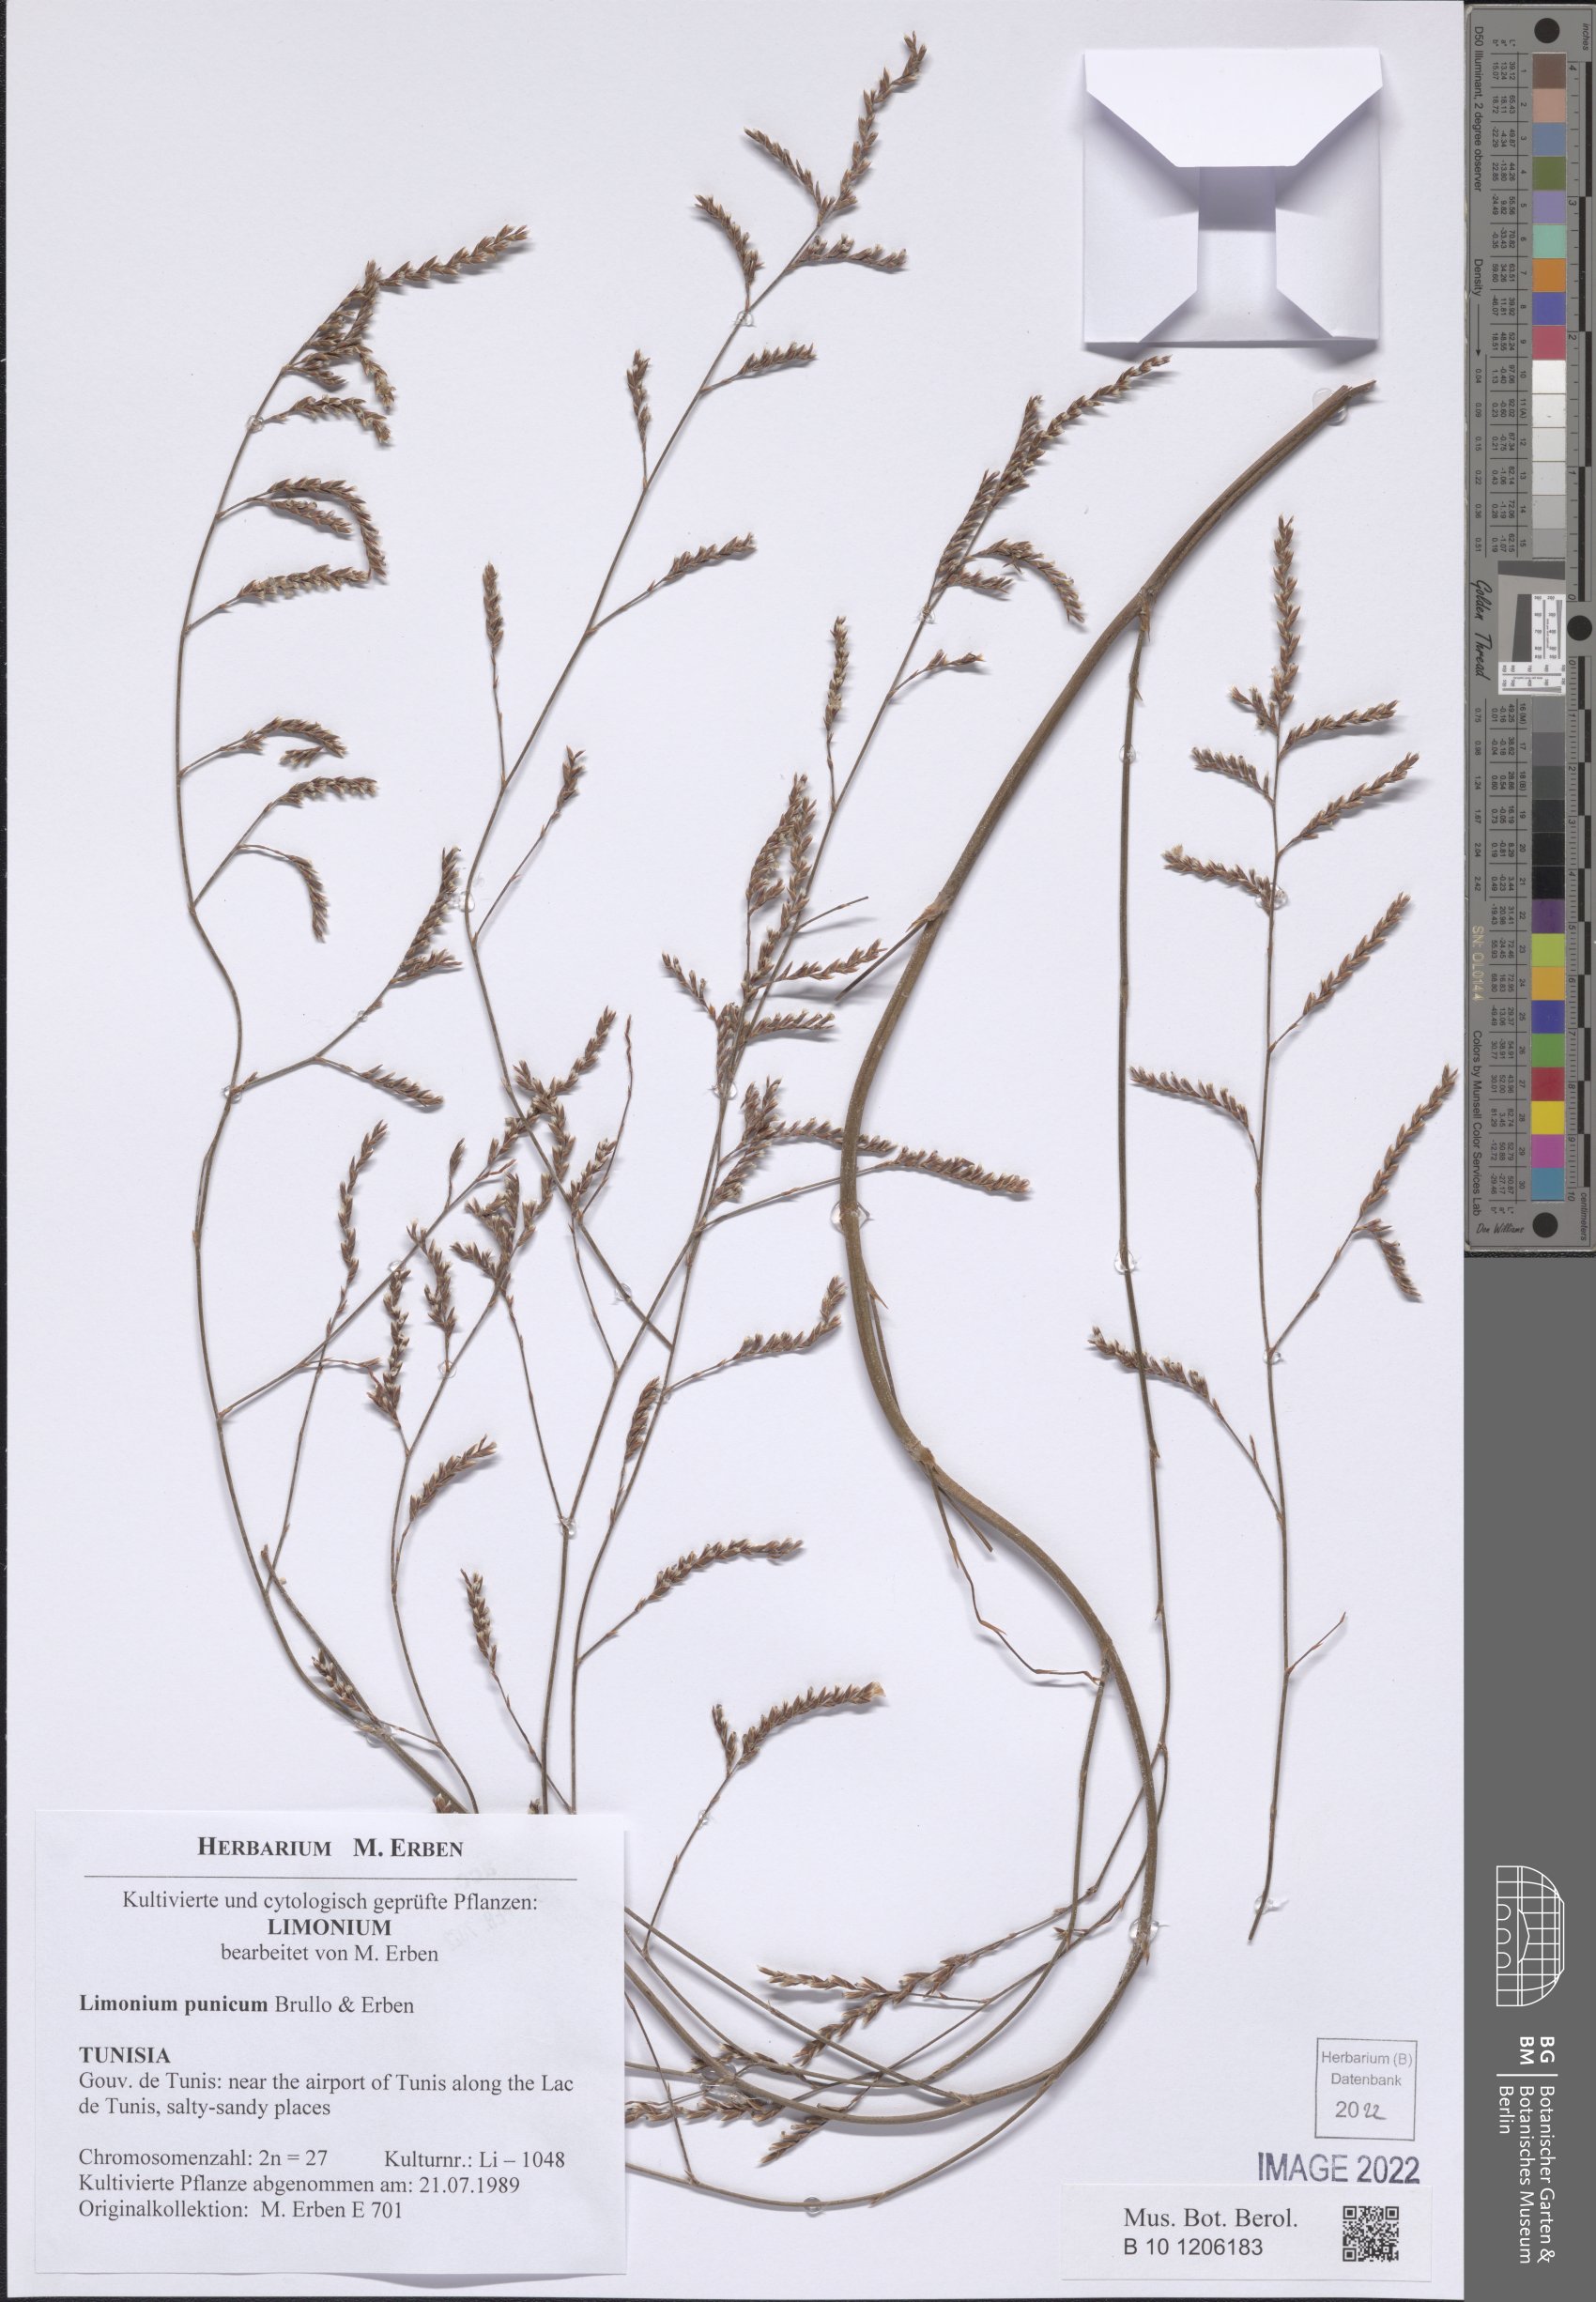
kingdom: Plantae
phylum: Tracheophyta
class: Magnoliopsida
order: Caryophyllales
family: Plumbaginaceae
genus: Limonium
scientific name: Limonium punicum
